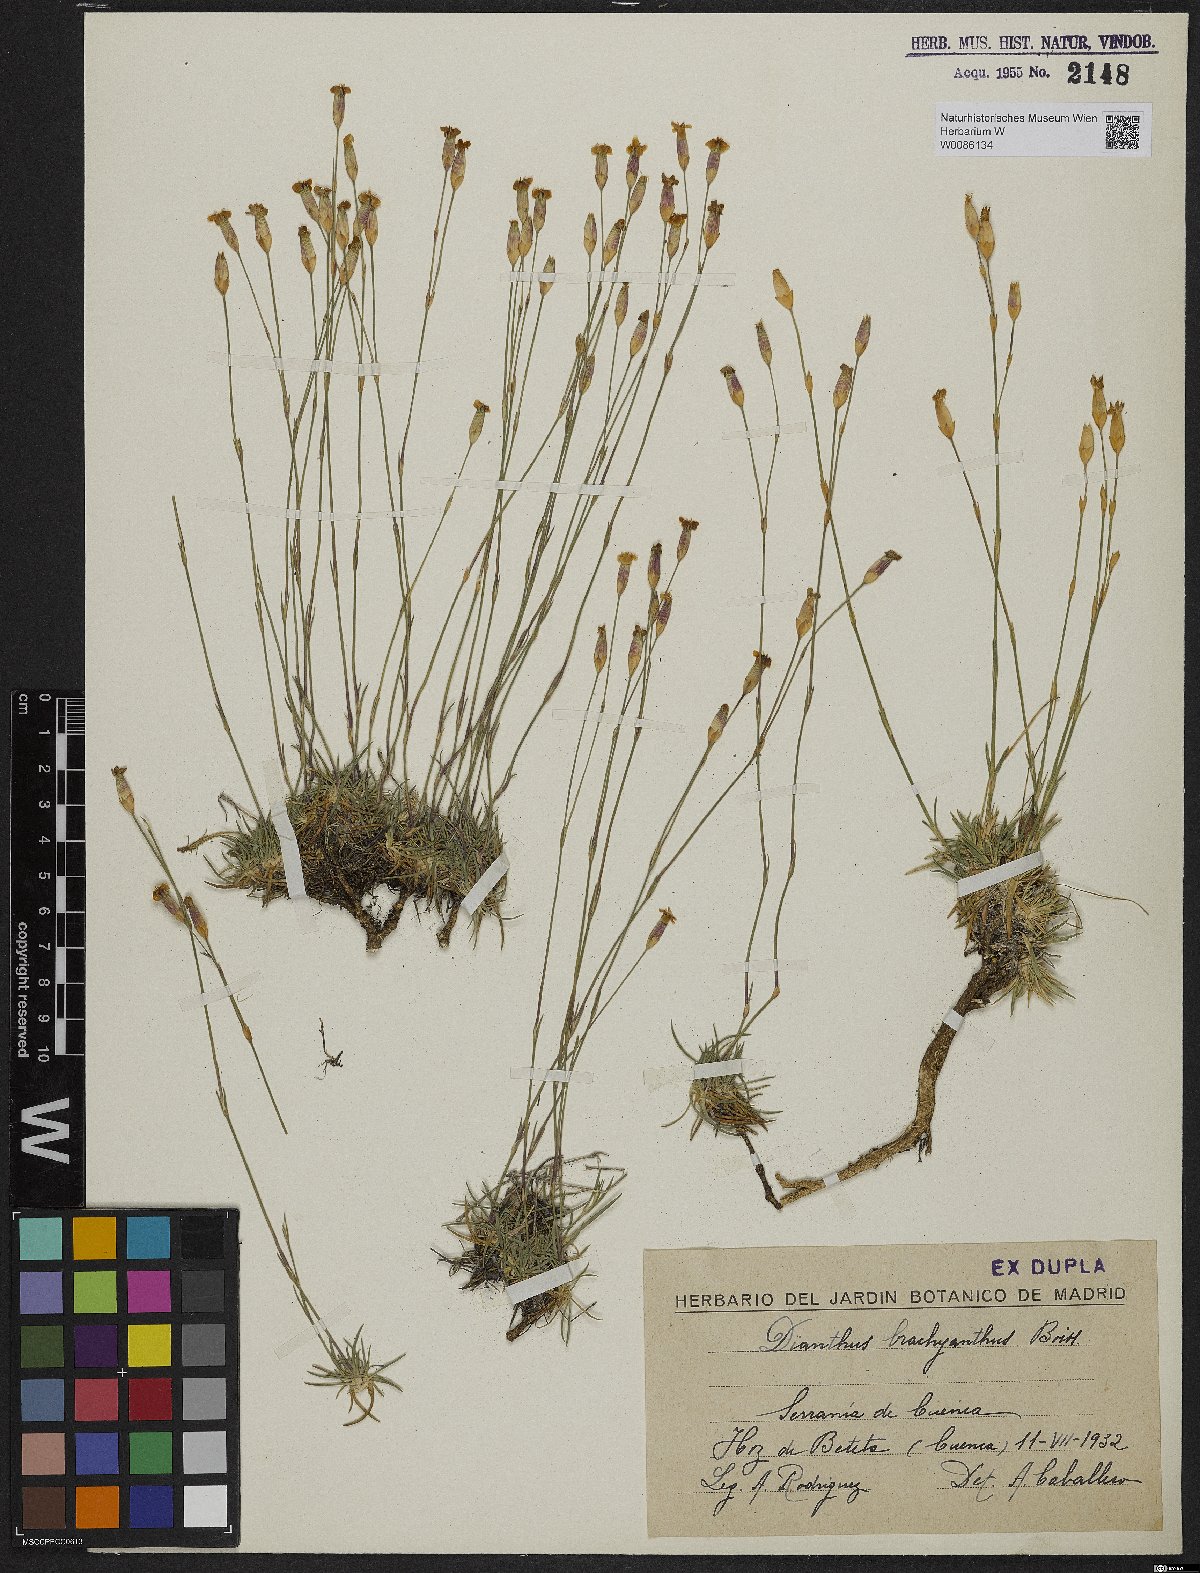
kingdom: Plantae
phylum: Tracheophyta
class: Magnoliopsida
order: Caryophyllales
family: Caryophyllaceae
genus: Dianthus
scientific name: Dianthus pungens
